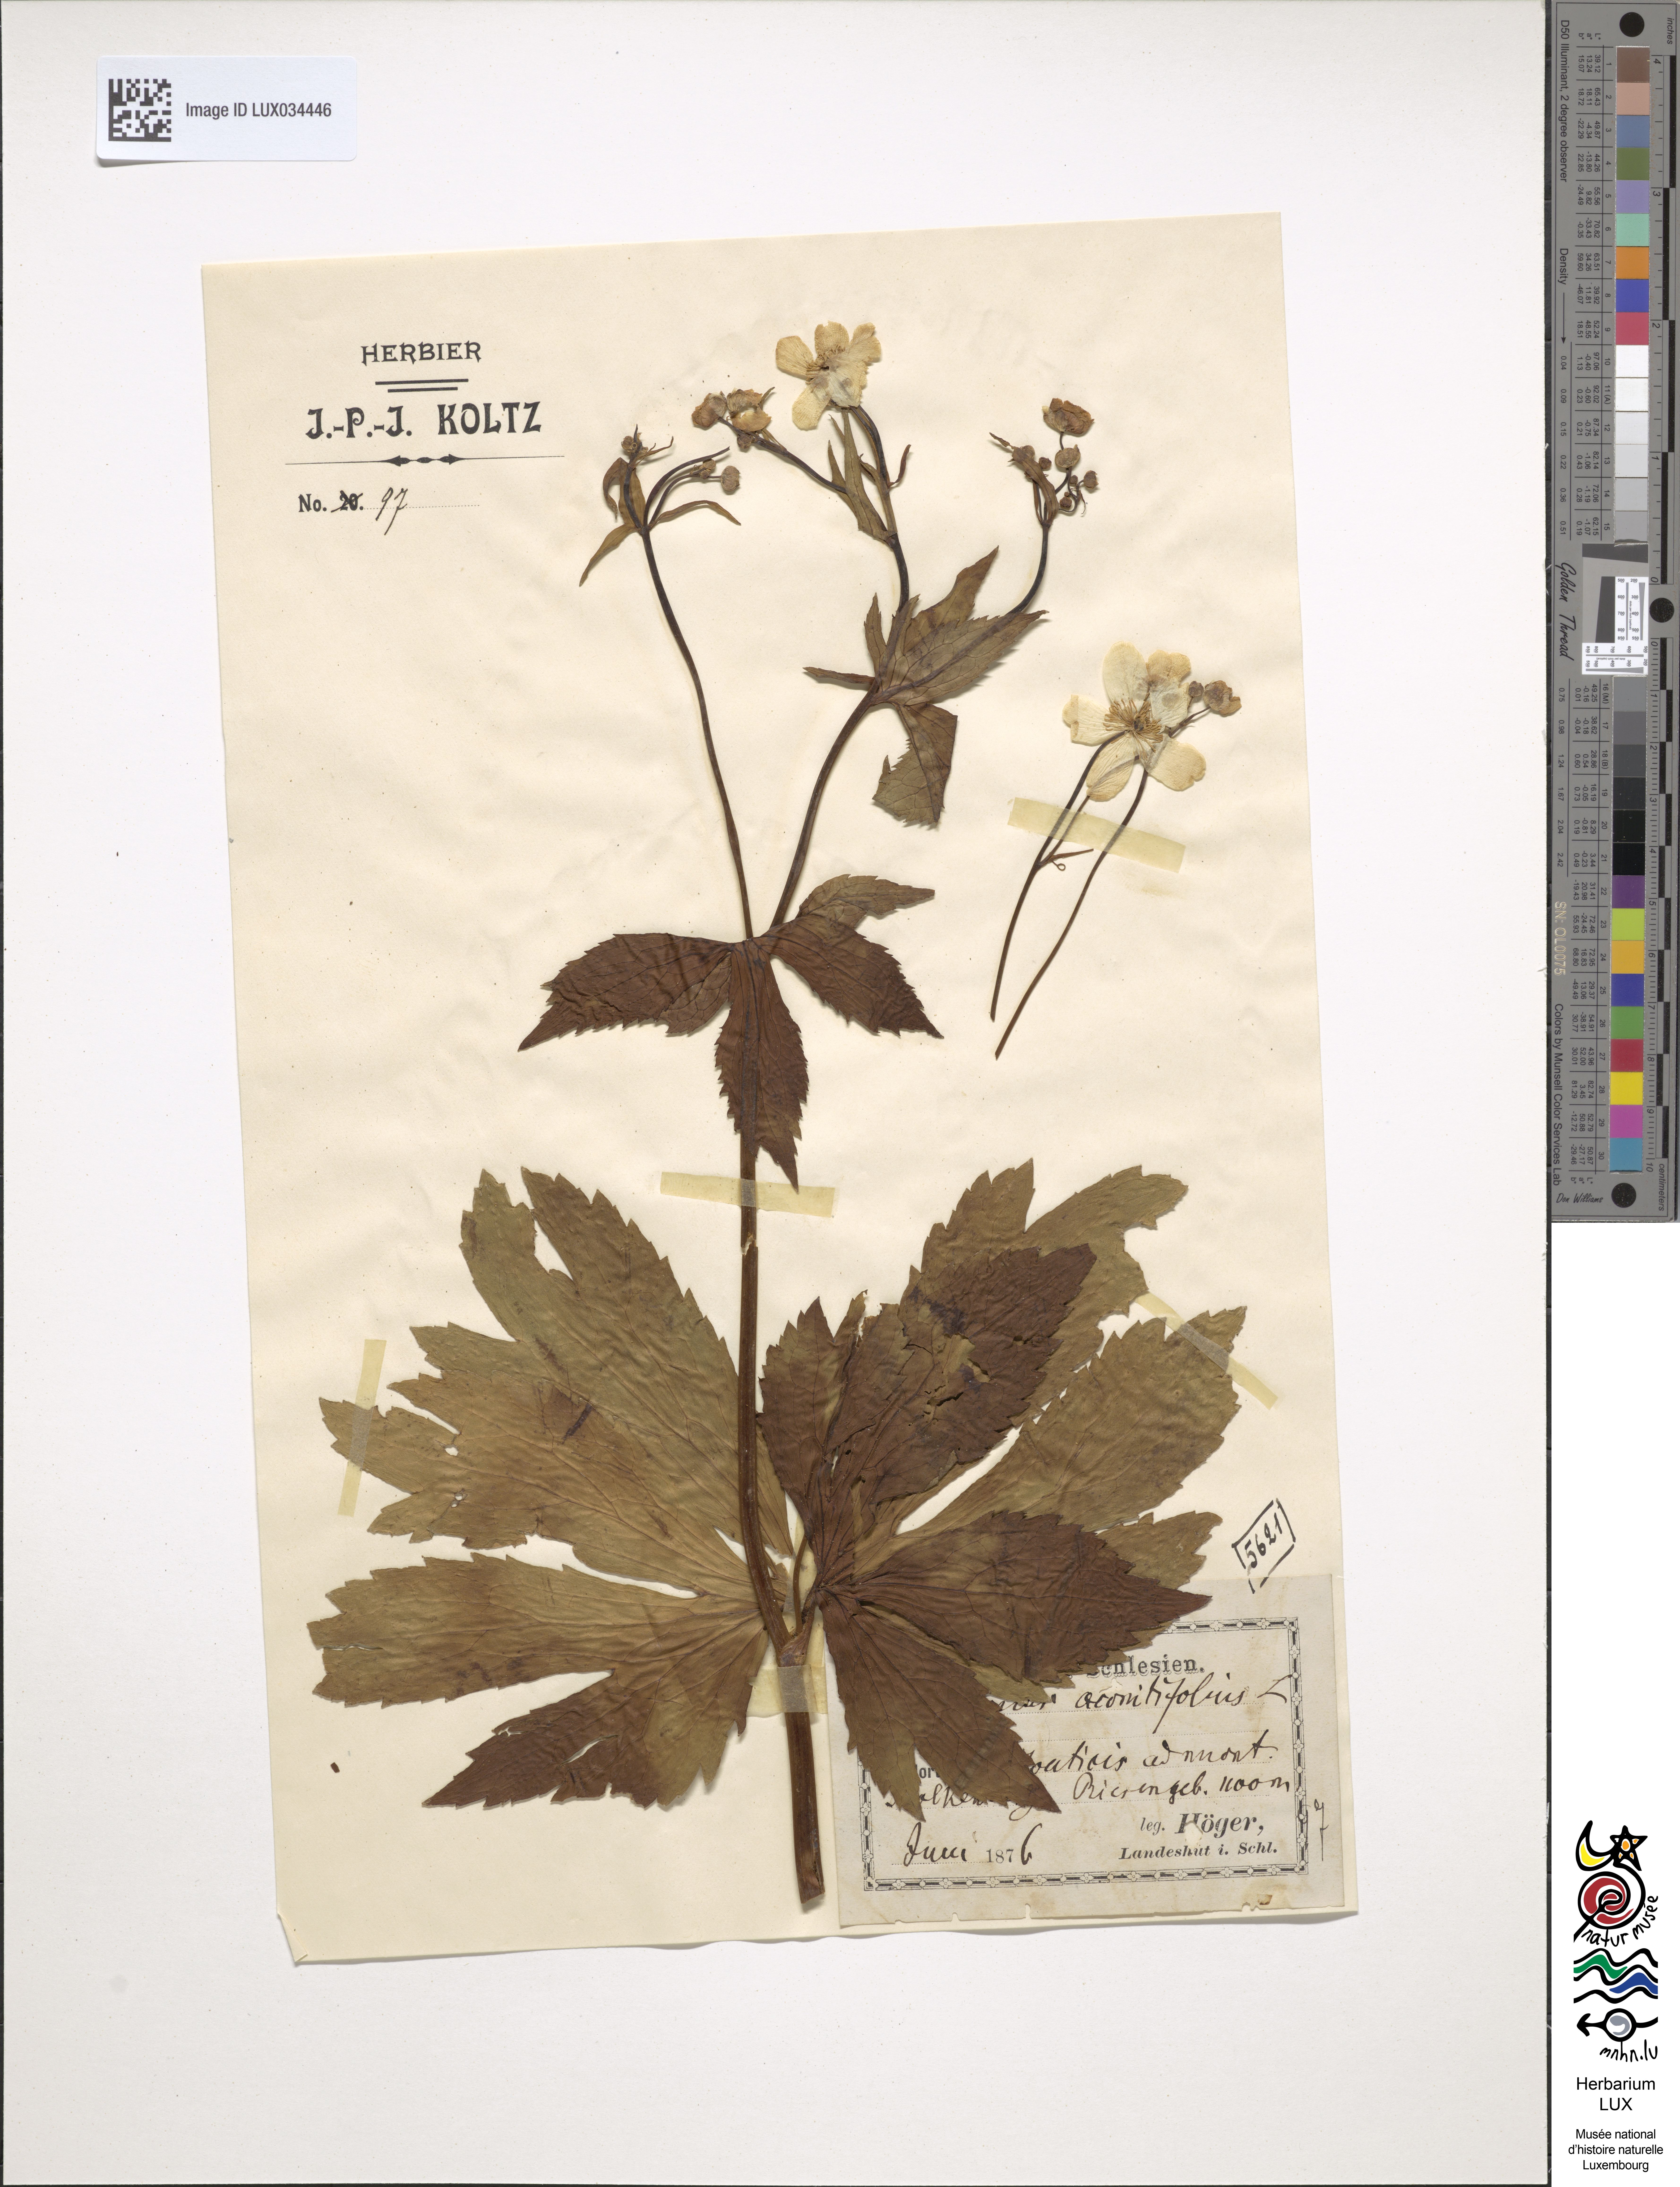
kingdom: Plantae
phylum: Tracheophyta
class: Magnoliopsida
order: Ranunculales
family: Ranunculaceae
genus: Ranunculus
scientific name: Ranunculus aconitifolius
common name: Aconite-leaved buttercup
